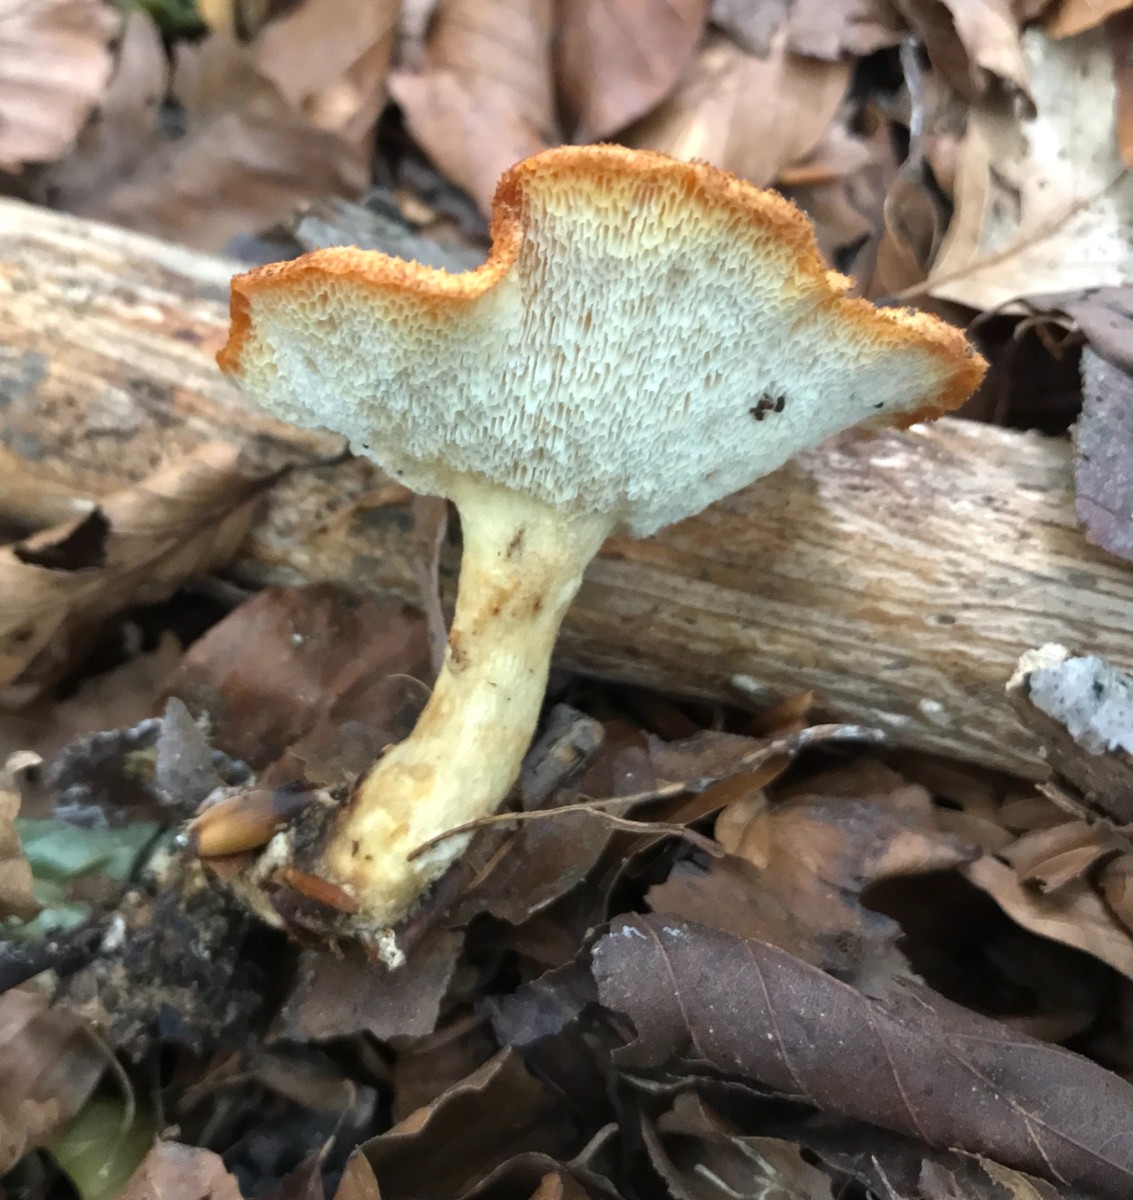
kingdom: Fungi
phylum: Basidiomycota
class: Agaricomycetes
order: Polyporales
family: Polyporaceae
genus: Cerioporus
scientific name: Cerioporus varius
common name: foranderlig stilkporesvamp
